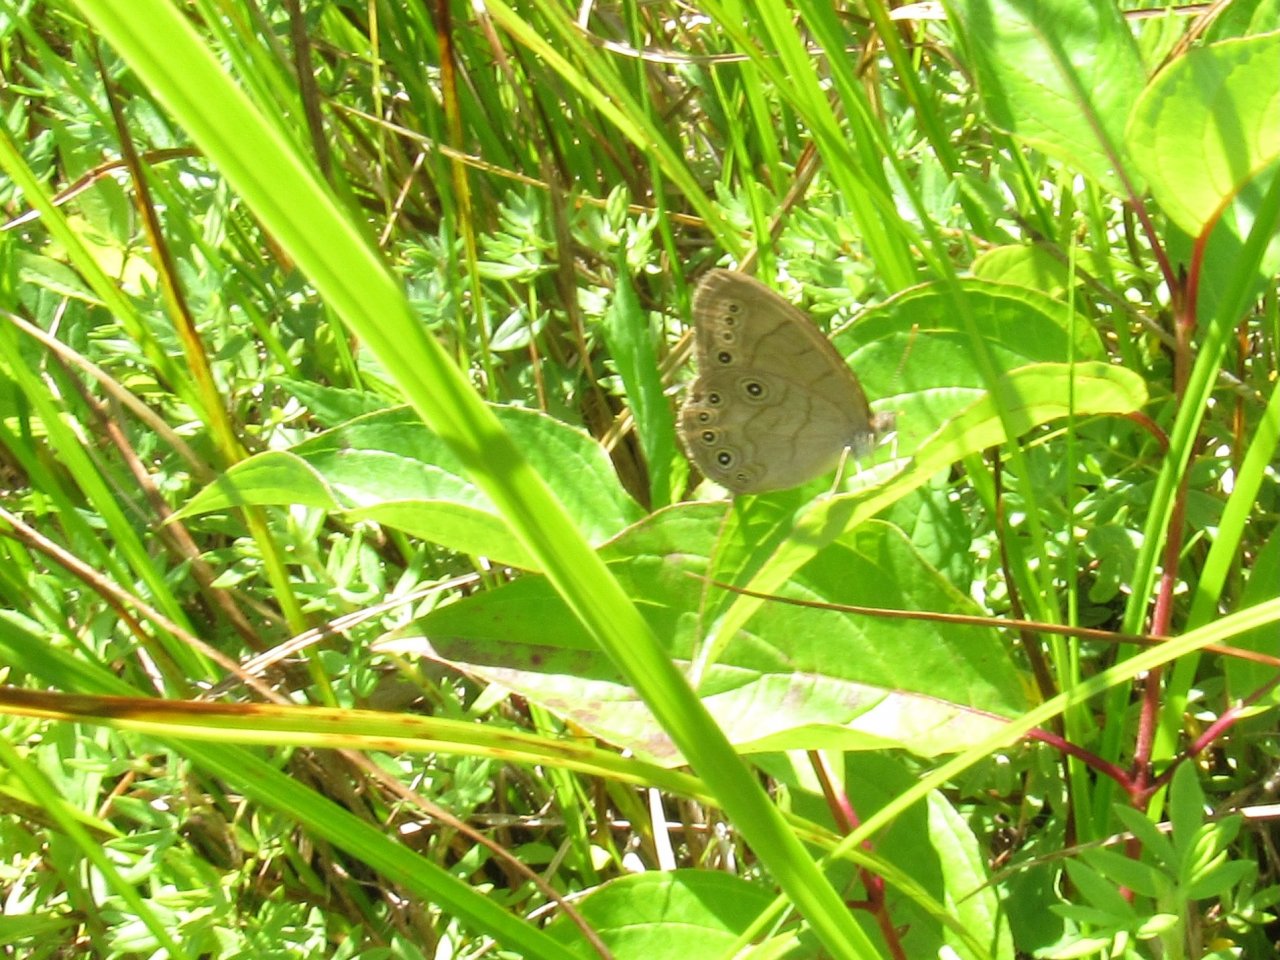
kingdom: Animalia
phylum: Arthropoda
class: Insecta
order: Lepidoptera
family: Nymphalidae
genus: Lethe
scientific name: Lethe eurydice
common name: Appalachian Eyed Brown
